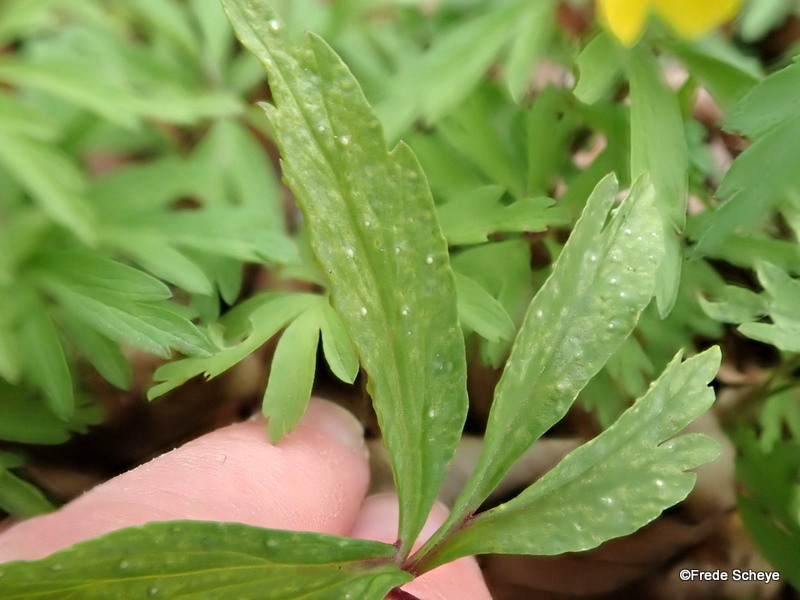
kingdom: Fungi
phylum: Basidiomycota
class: Pucciniomycetes
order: Pucciniales
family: Ochropsoraceae
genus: Ochropsora
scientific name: Ochropsora ariae
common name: anemone-okkerpletrust
